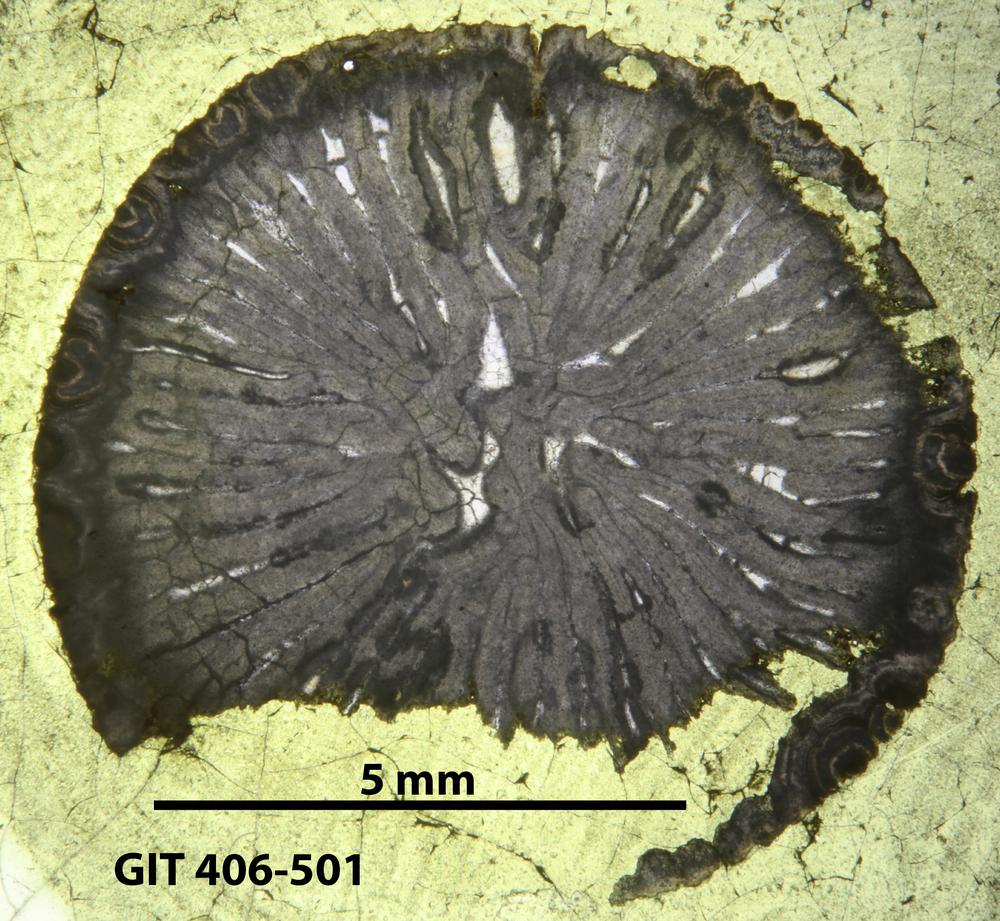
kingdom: Animalia
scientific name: Animalia
